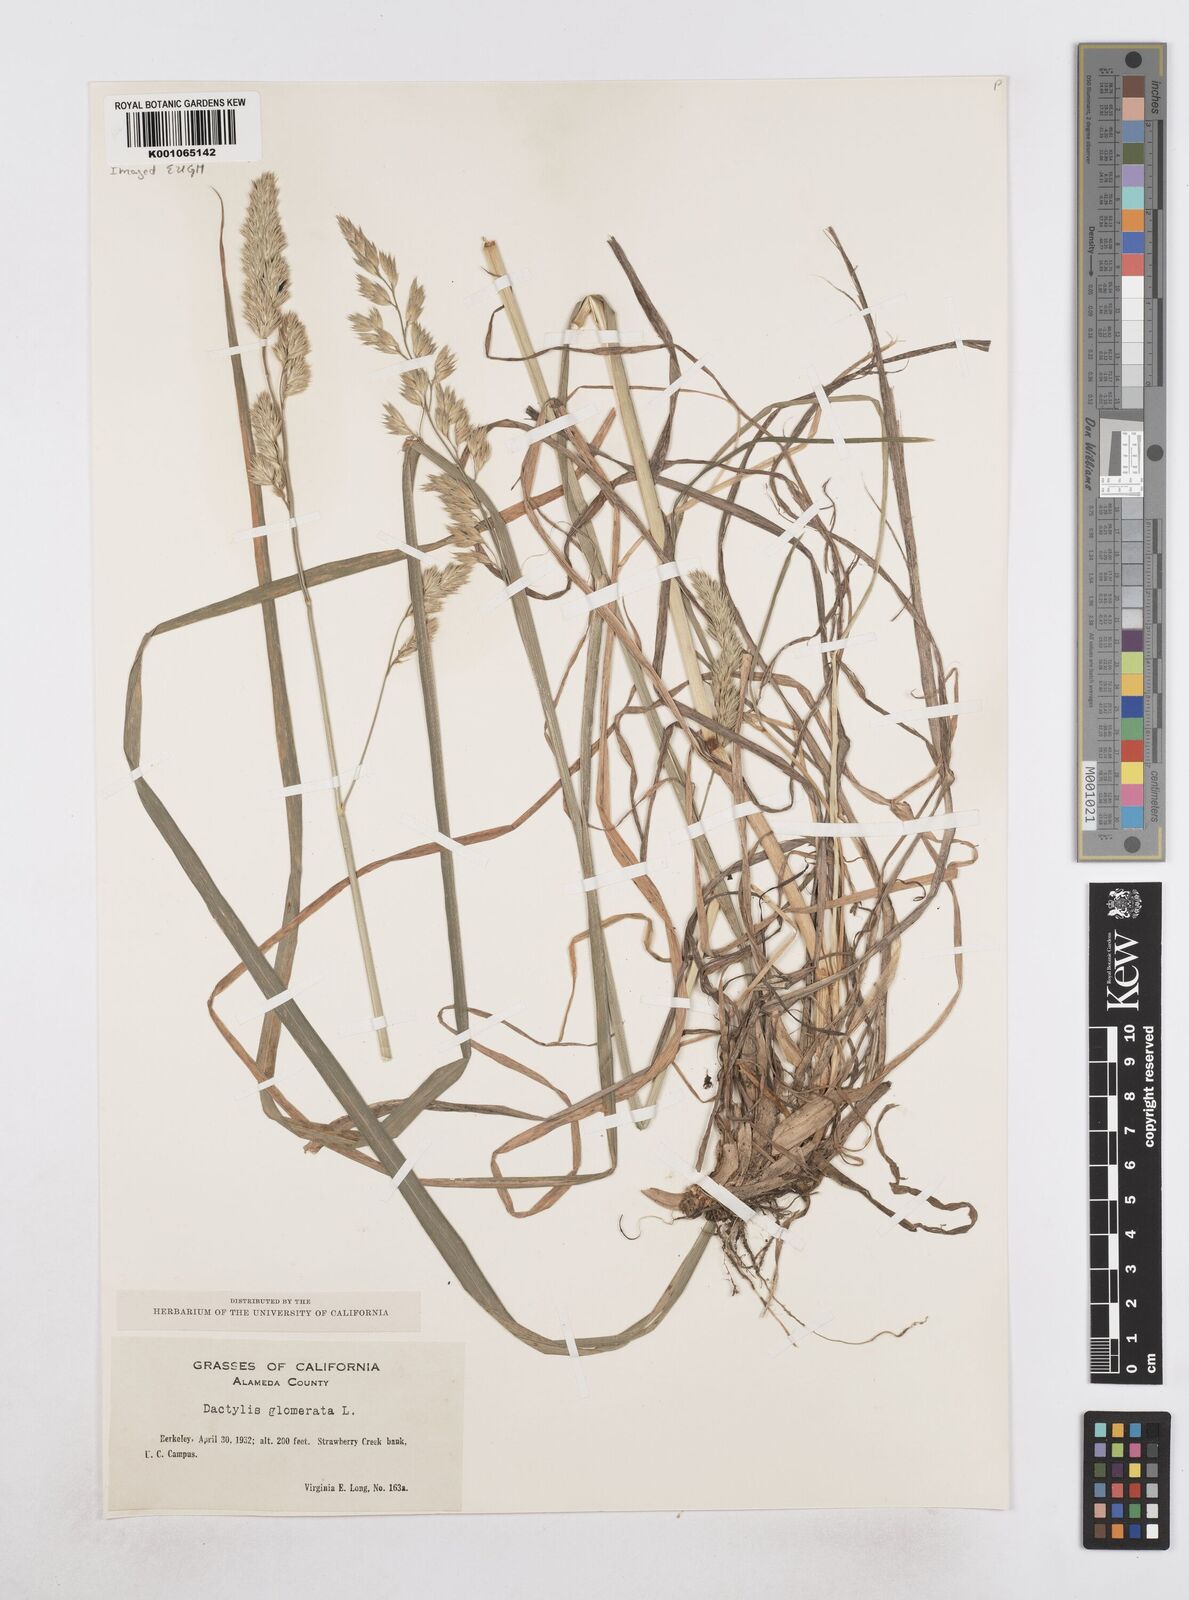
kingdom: Plantae
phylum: Tracheophyta
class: Liliopsida
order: Poales
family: Poaceae
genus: Dactylis
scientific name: Dactylis glomerata
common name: Orchardgrass
